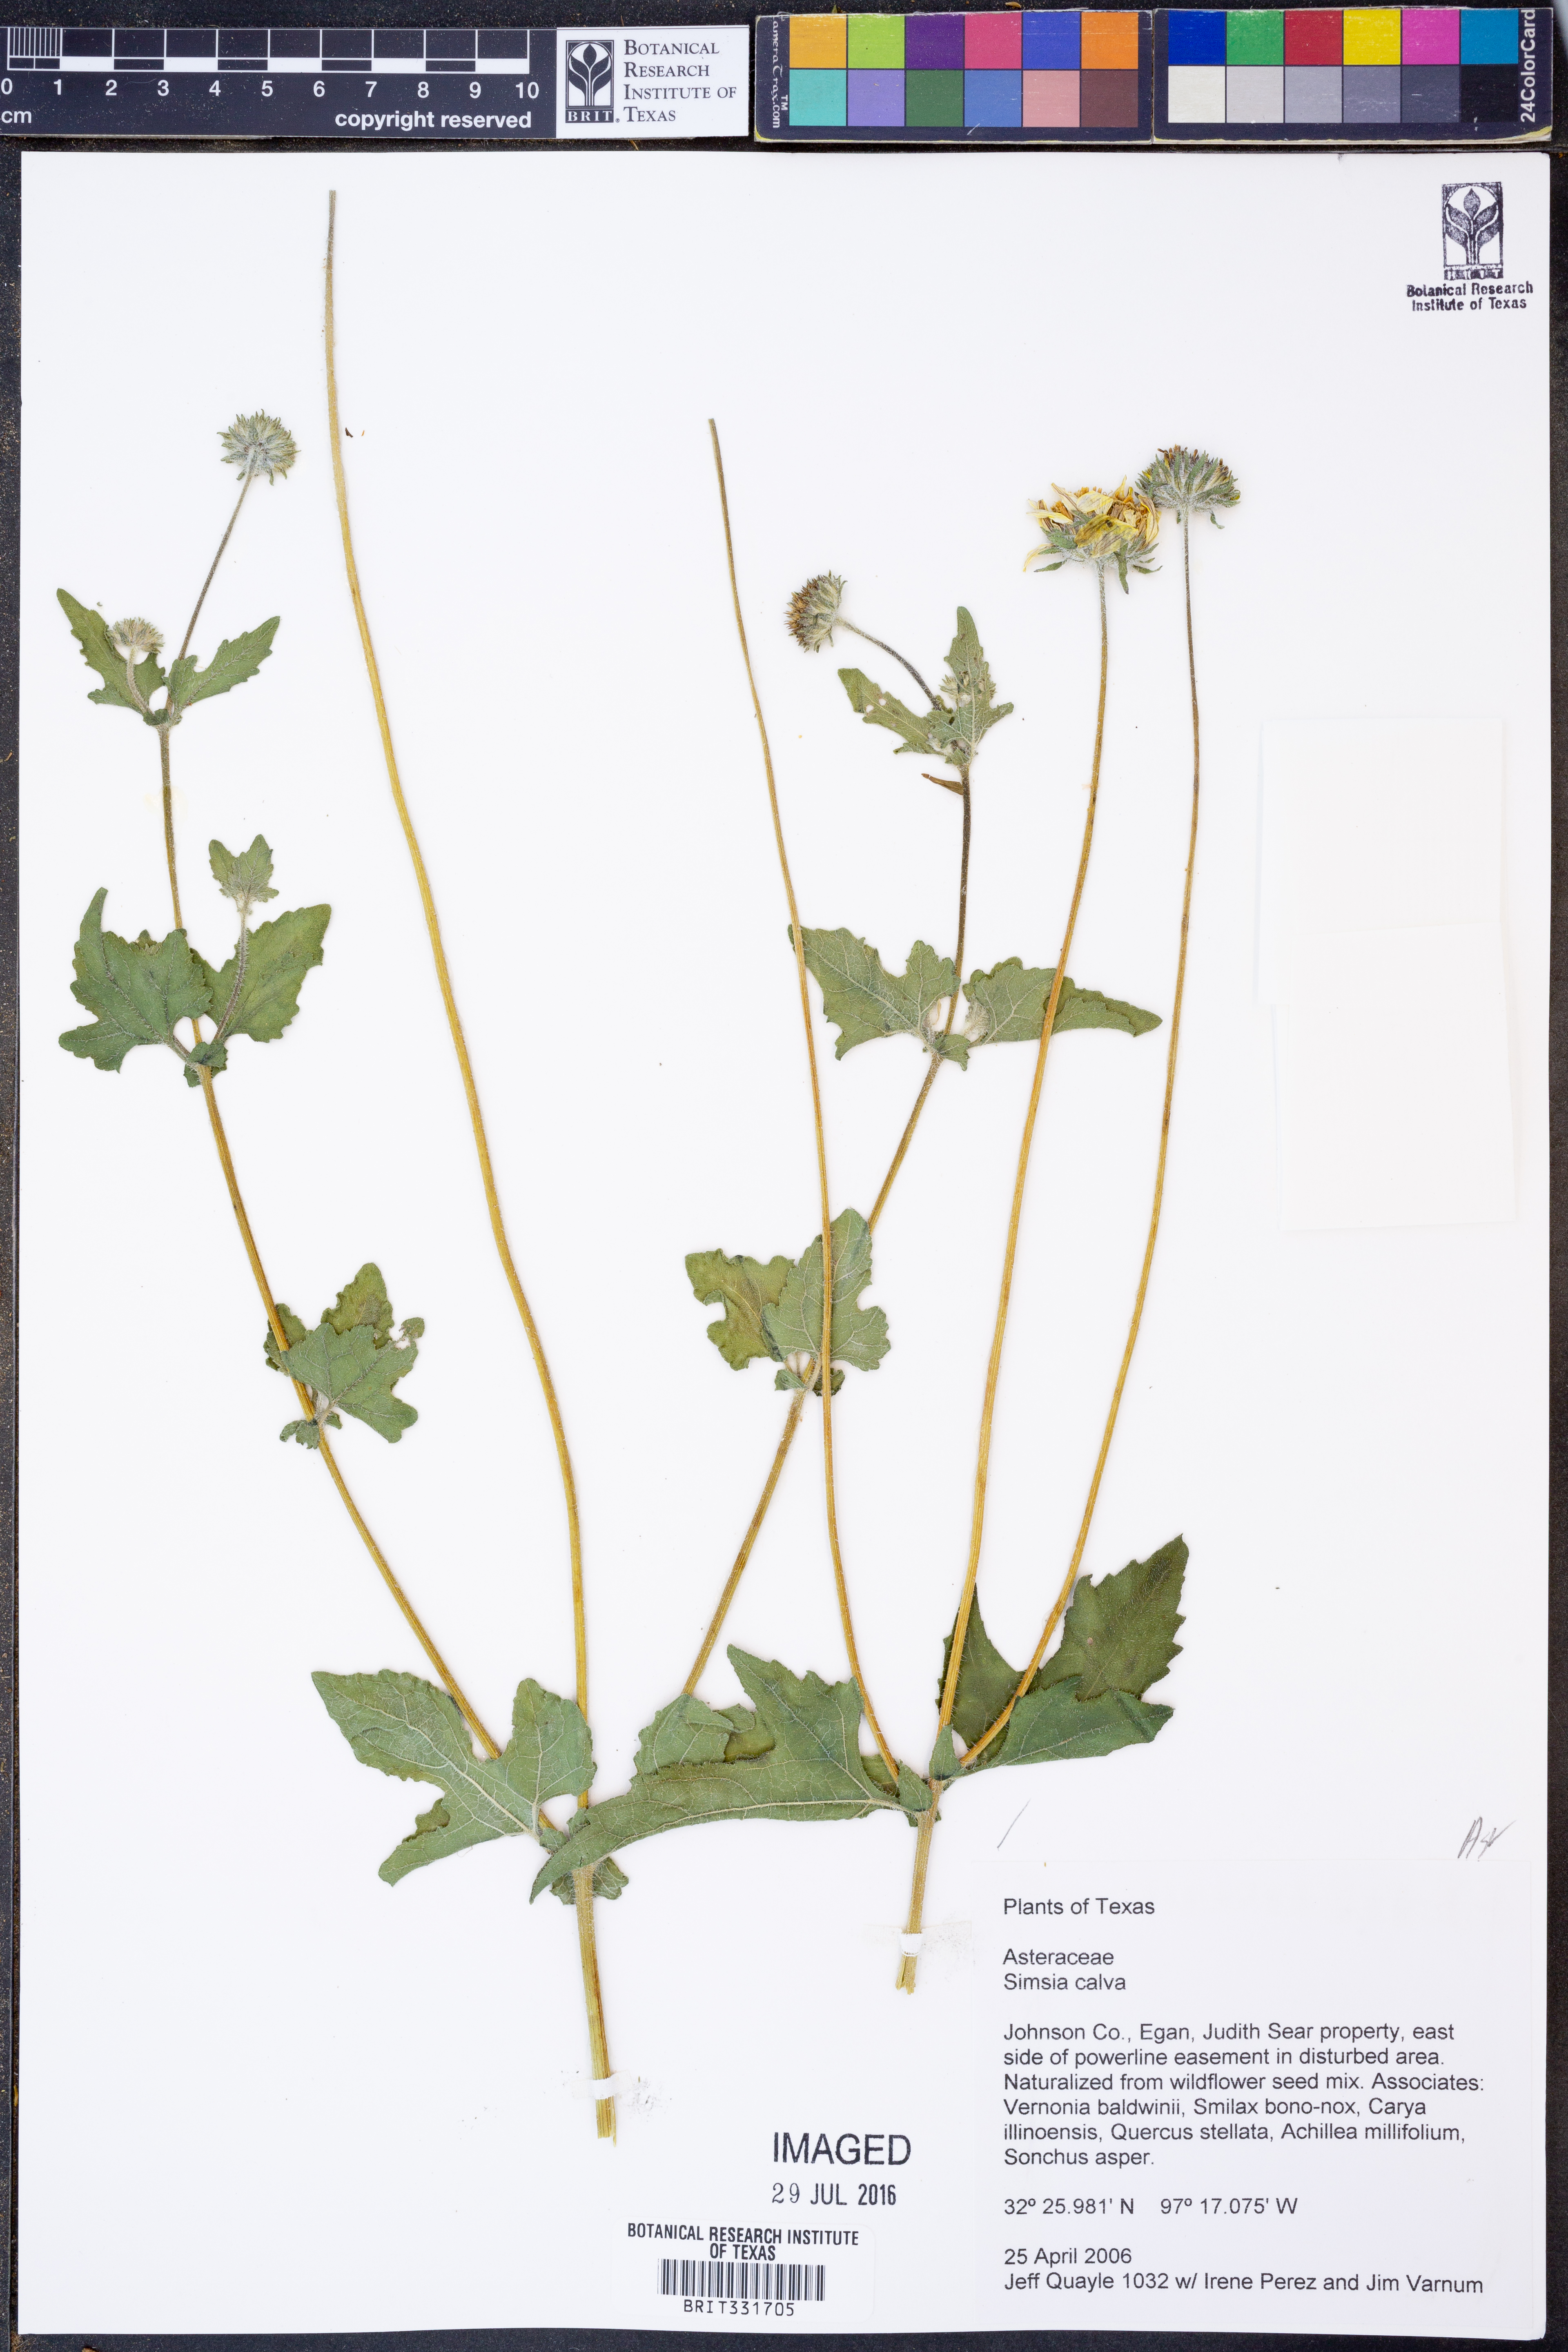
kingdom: Plantae
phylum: Tracheophyta
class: Magnoliopsida
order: Asterales
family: Asteraceae
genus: Simsia
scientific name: Simsia calva
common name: Awnless bush-sunflower
